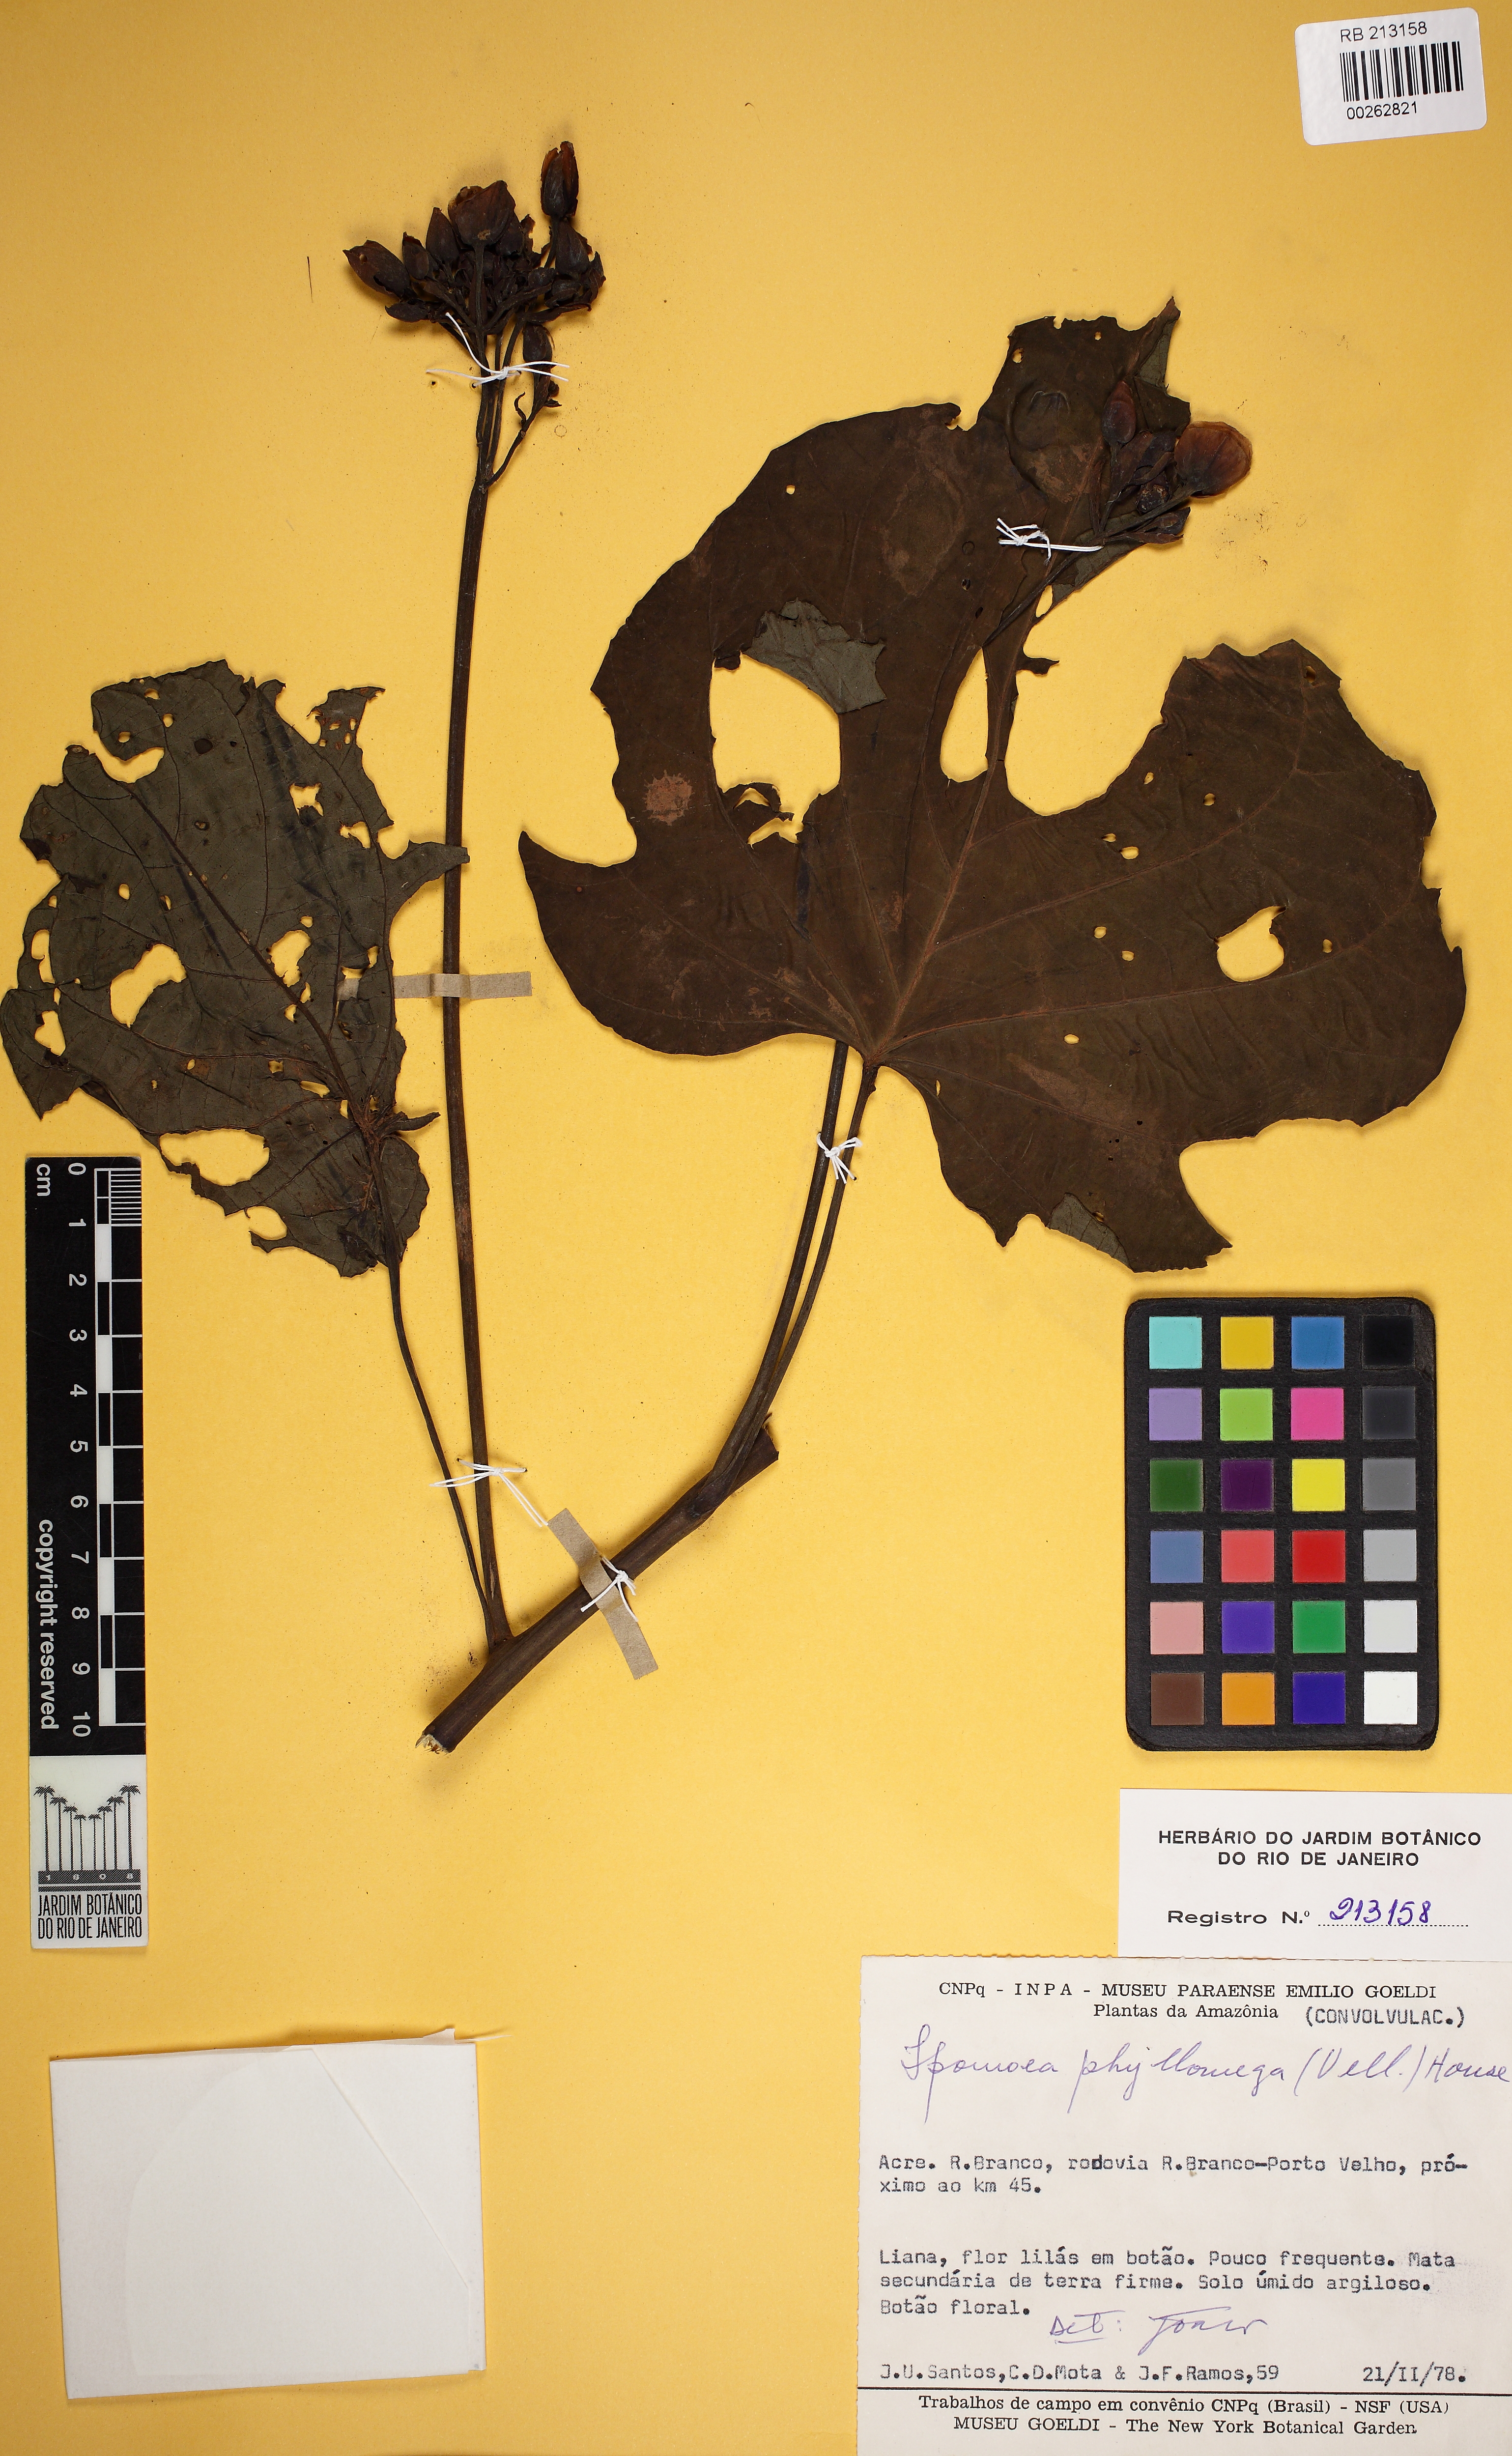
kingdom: Plantae
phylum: Tracheophyta
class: Magnoliopsida
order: Solanales
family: Convolvulaceae
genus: Ipomoea
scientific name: Ipomoea philomega
